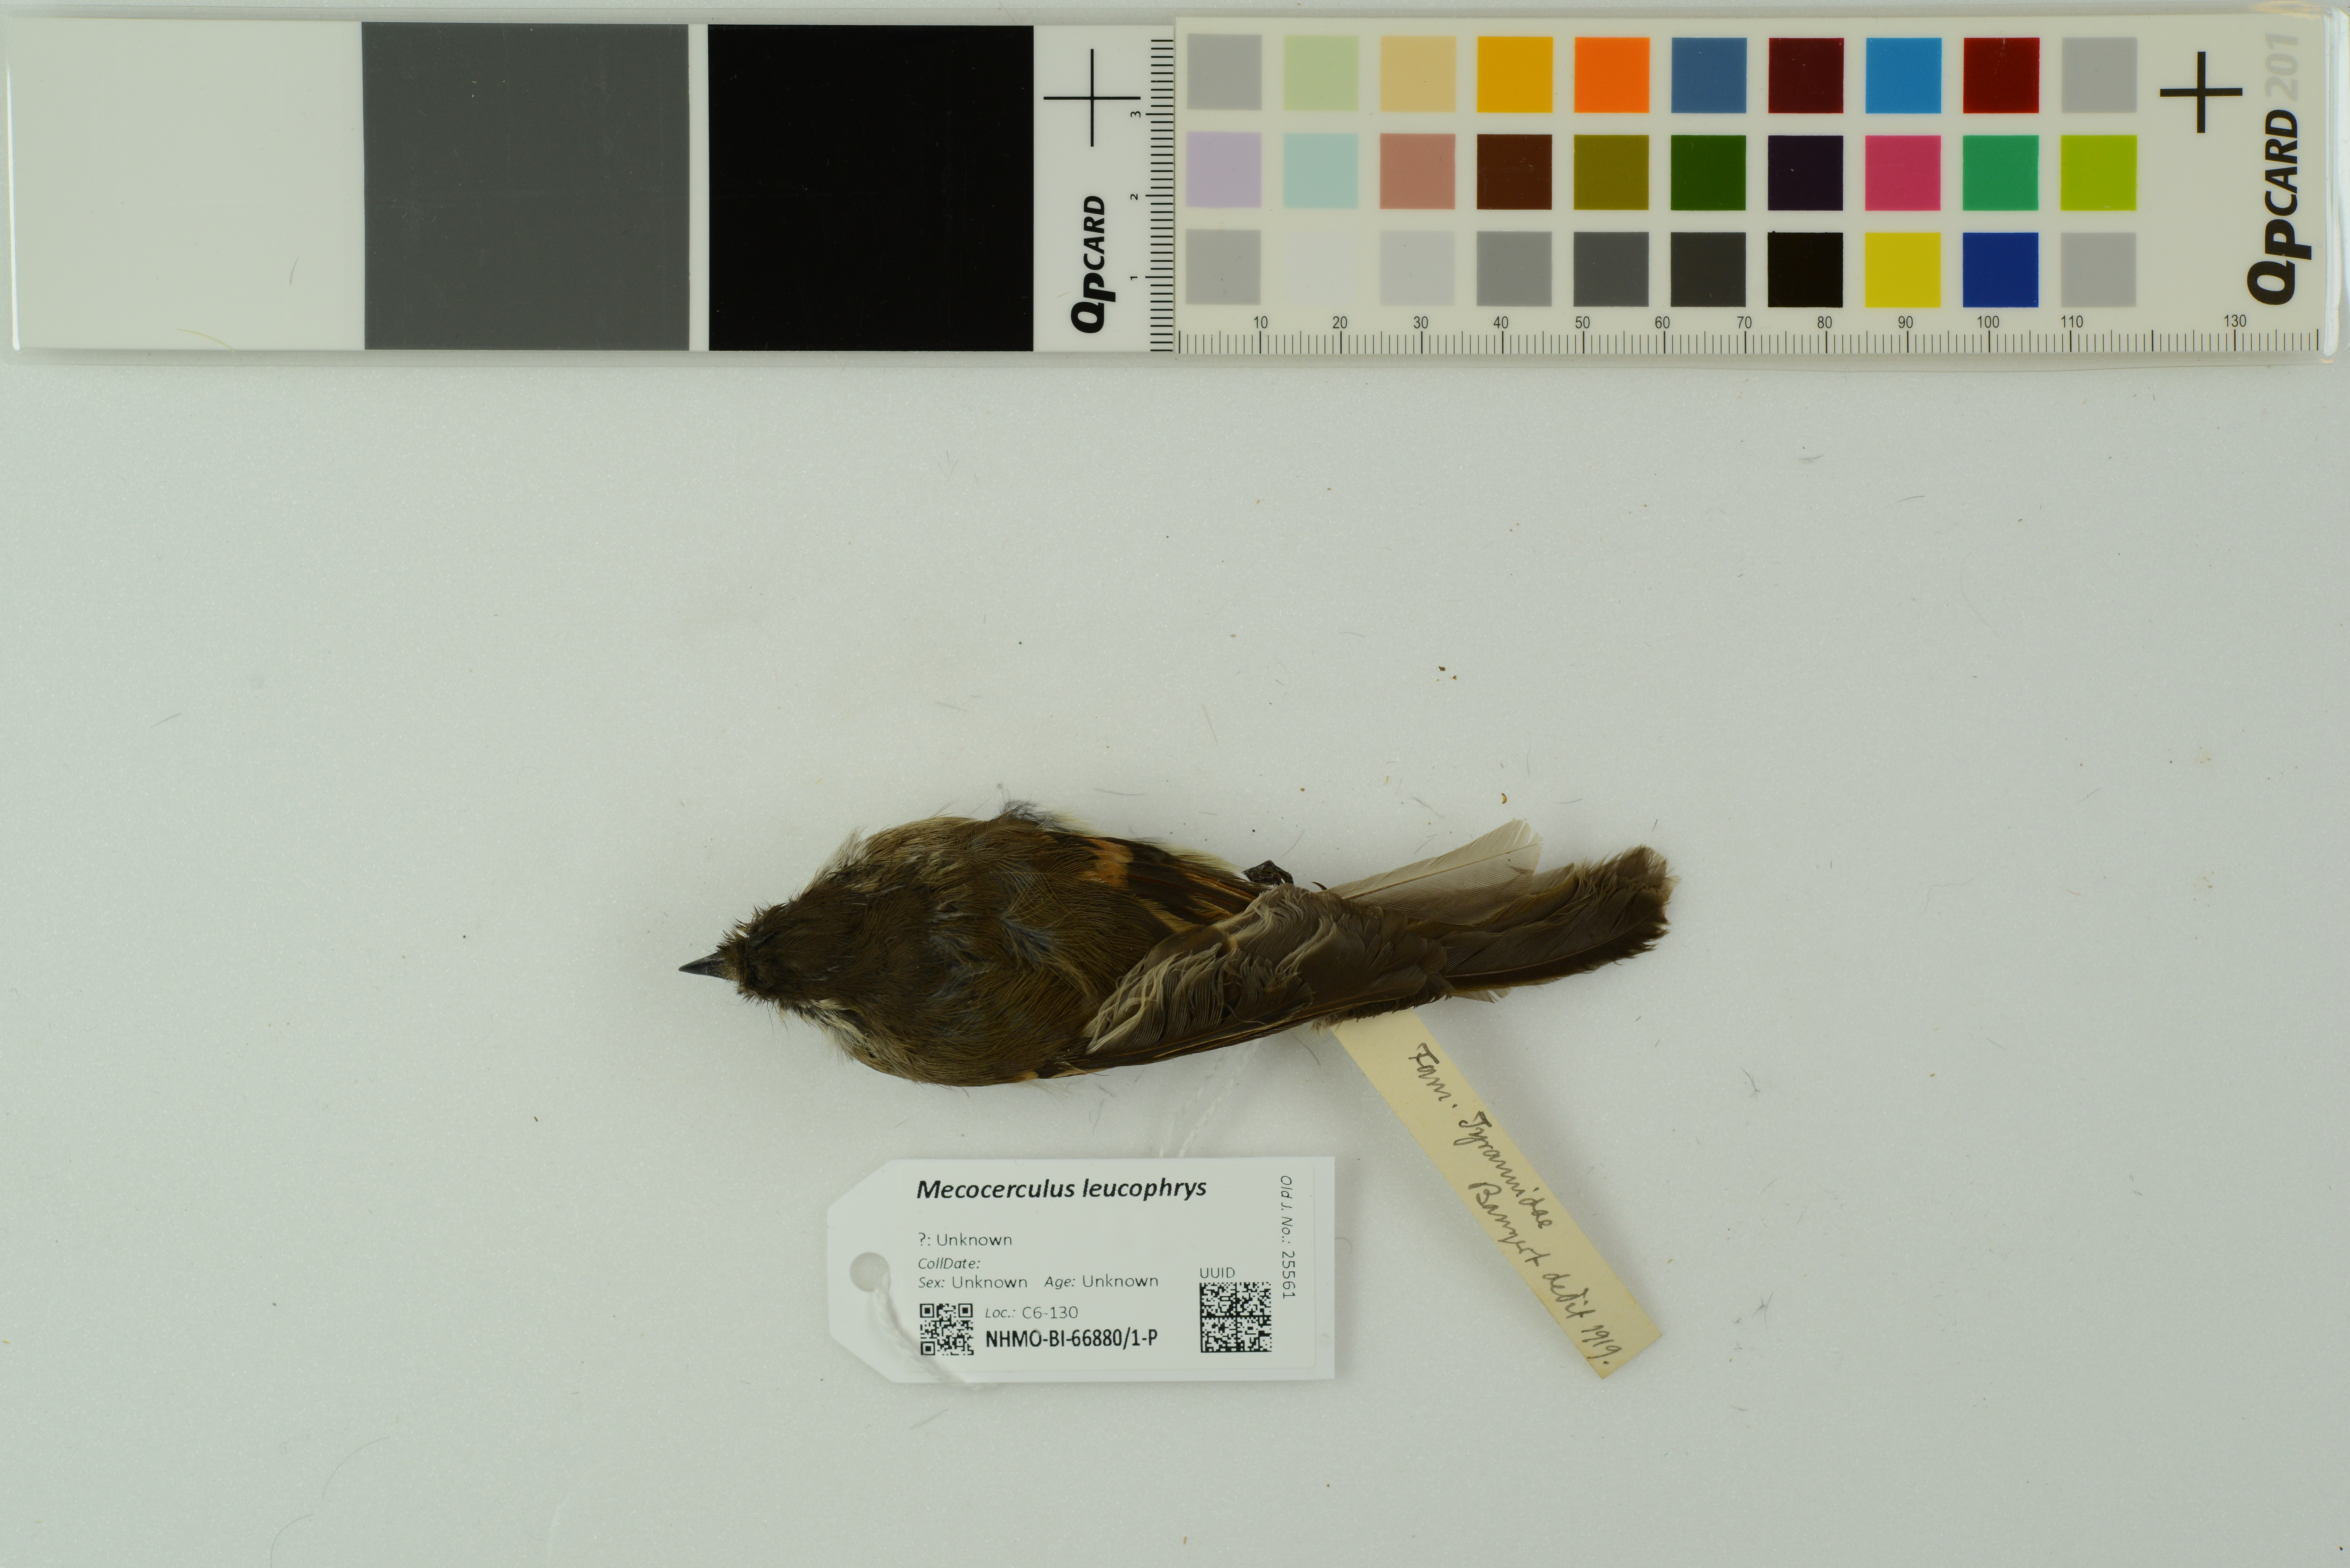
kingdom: Animalia
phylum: Chordata
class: Aves
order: Passeriformes
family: Tyrannidae
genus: Mecocerculus
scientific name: Mecocerculus leucophrys
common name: White-throated tyrannulet
